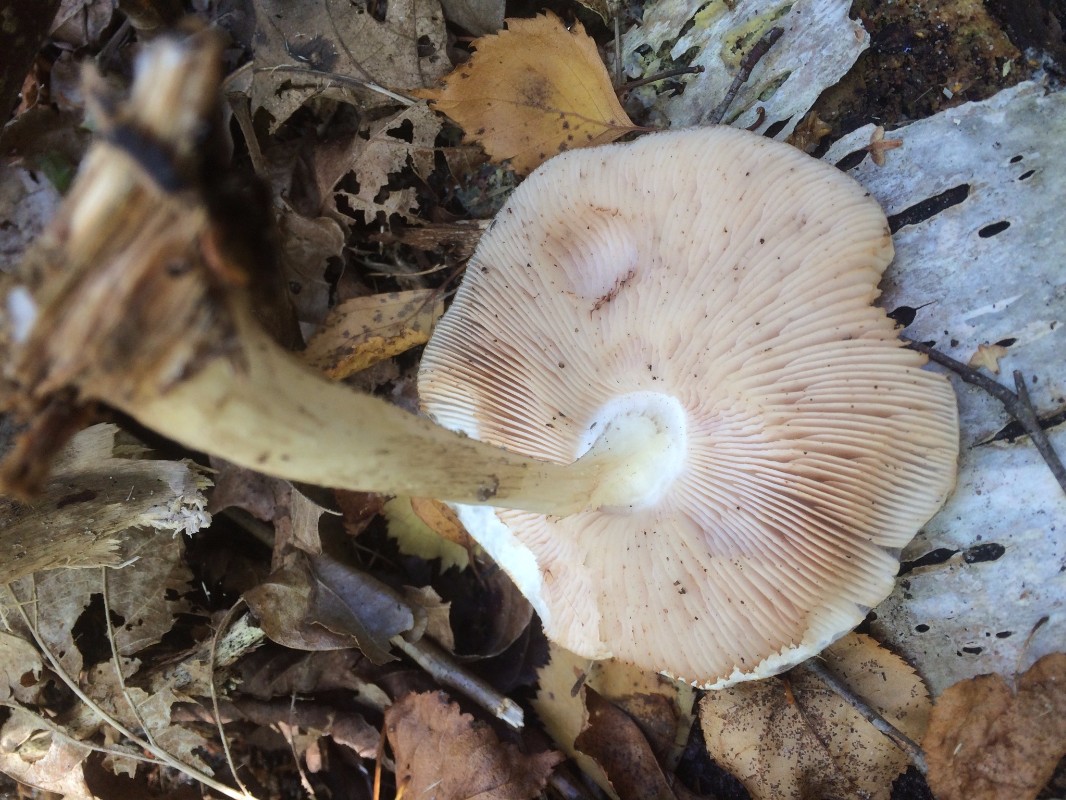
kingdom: Fungi
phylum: Basidiomycota
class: Agaricomycetes
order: Agaricales
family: Pluteaceae
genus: Pluteus
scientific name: Pluteus cervinus
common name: sodfarvet skærmhat
